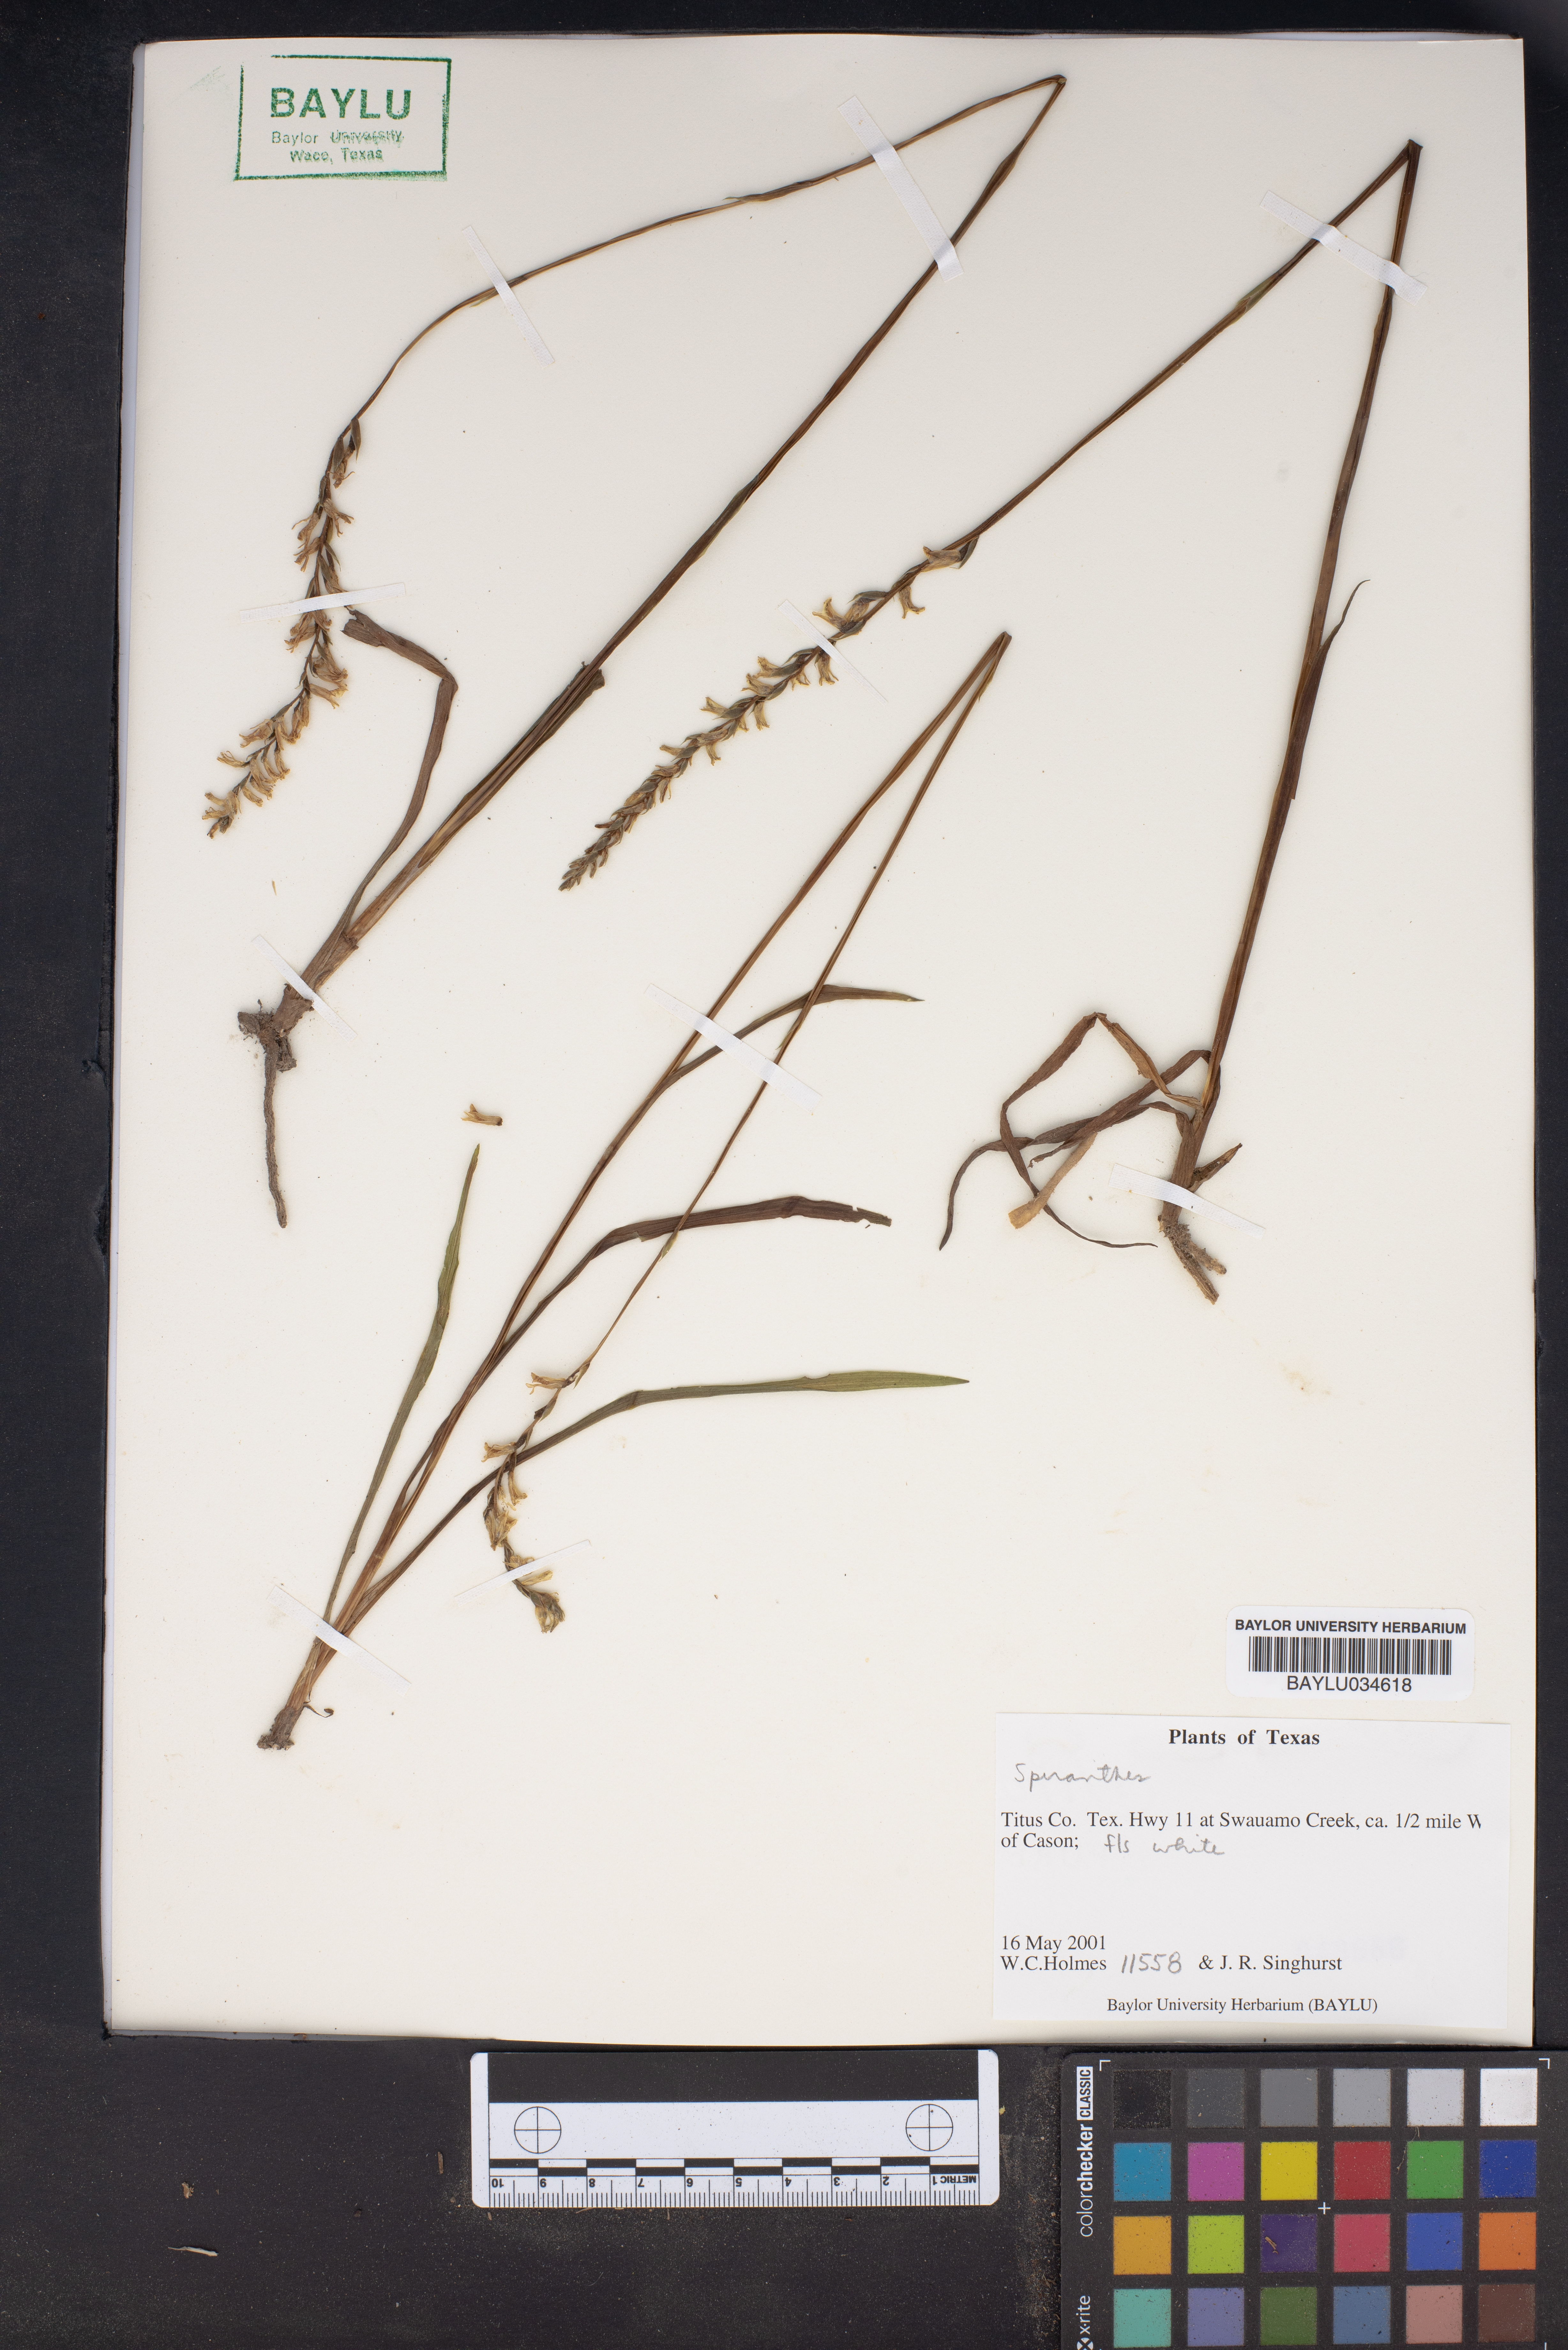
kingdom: Plantae
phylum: Tracheophyta
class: Magnoliopsida
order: Asterales
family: Asteraceae
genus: Spilanthes
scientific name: Spilanthes
